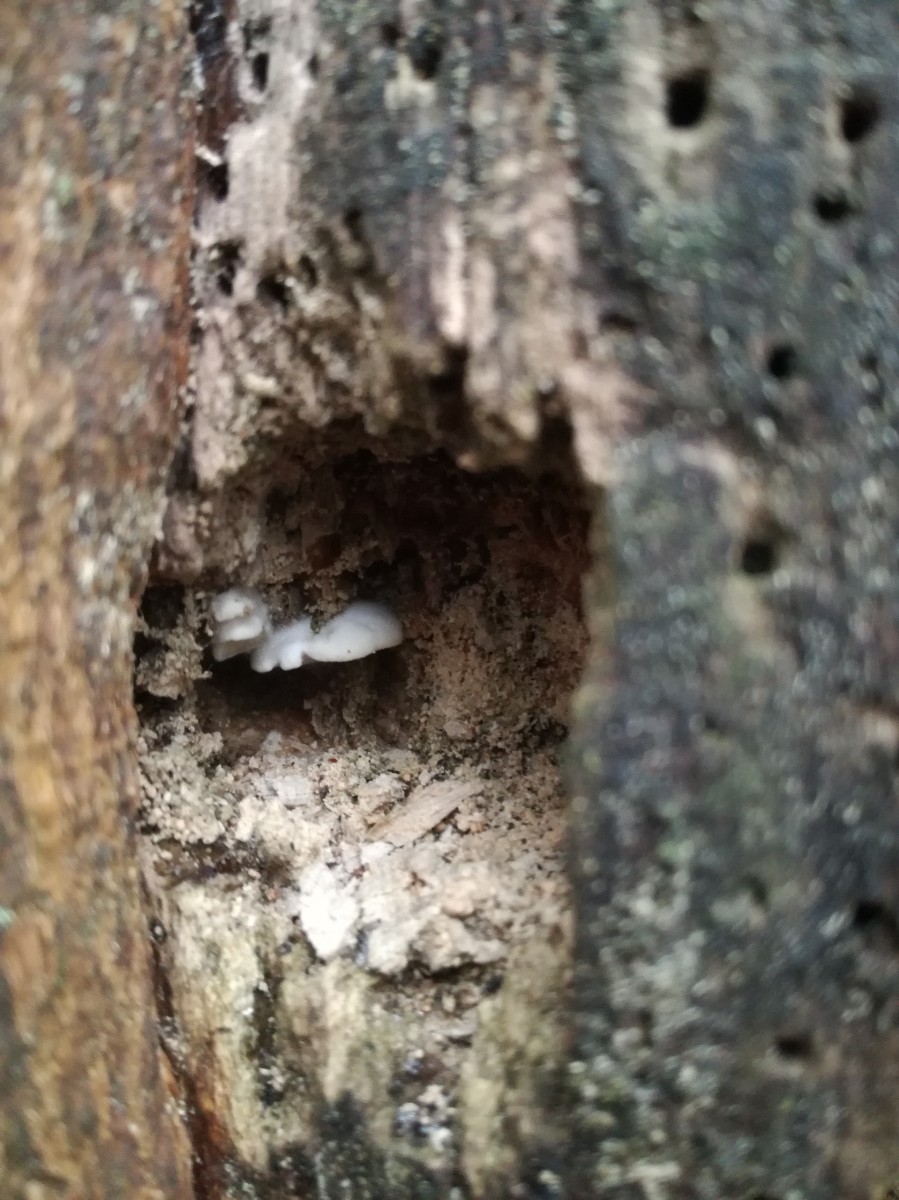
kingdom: Fungi
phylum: Basidiomycota
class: Agaricomycetes
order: Polyporales
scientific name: Polyporales
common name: poresvampordenen
